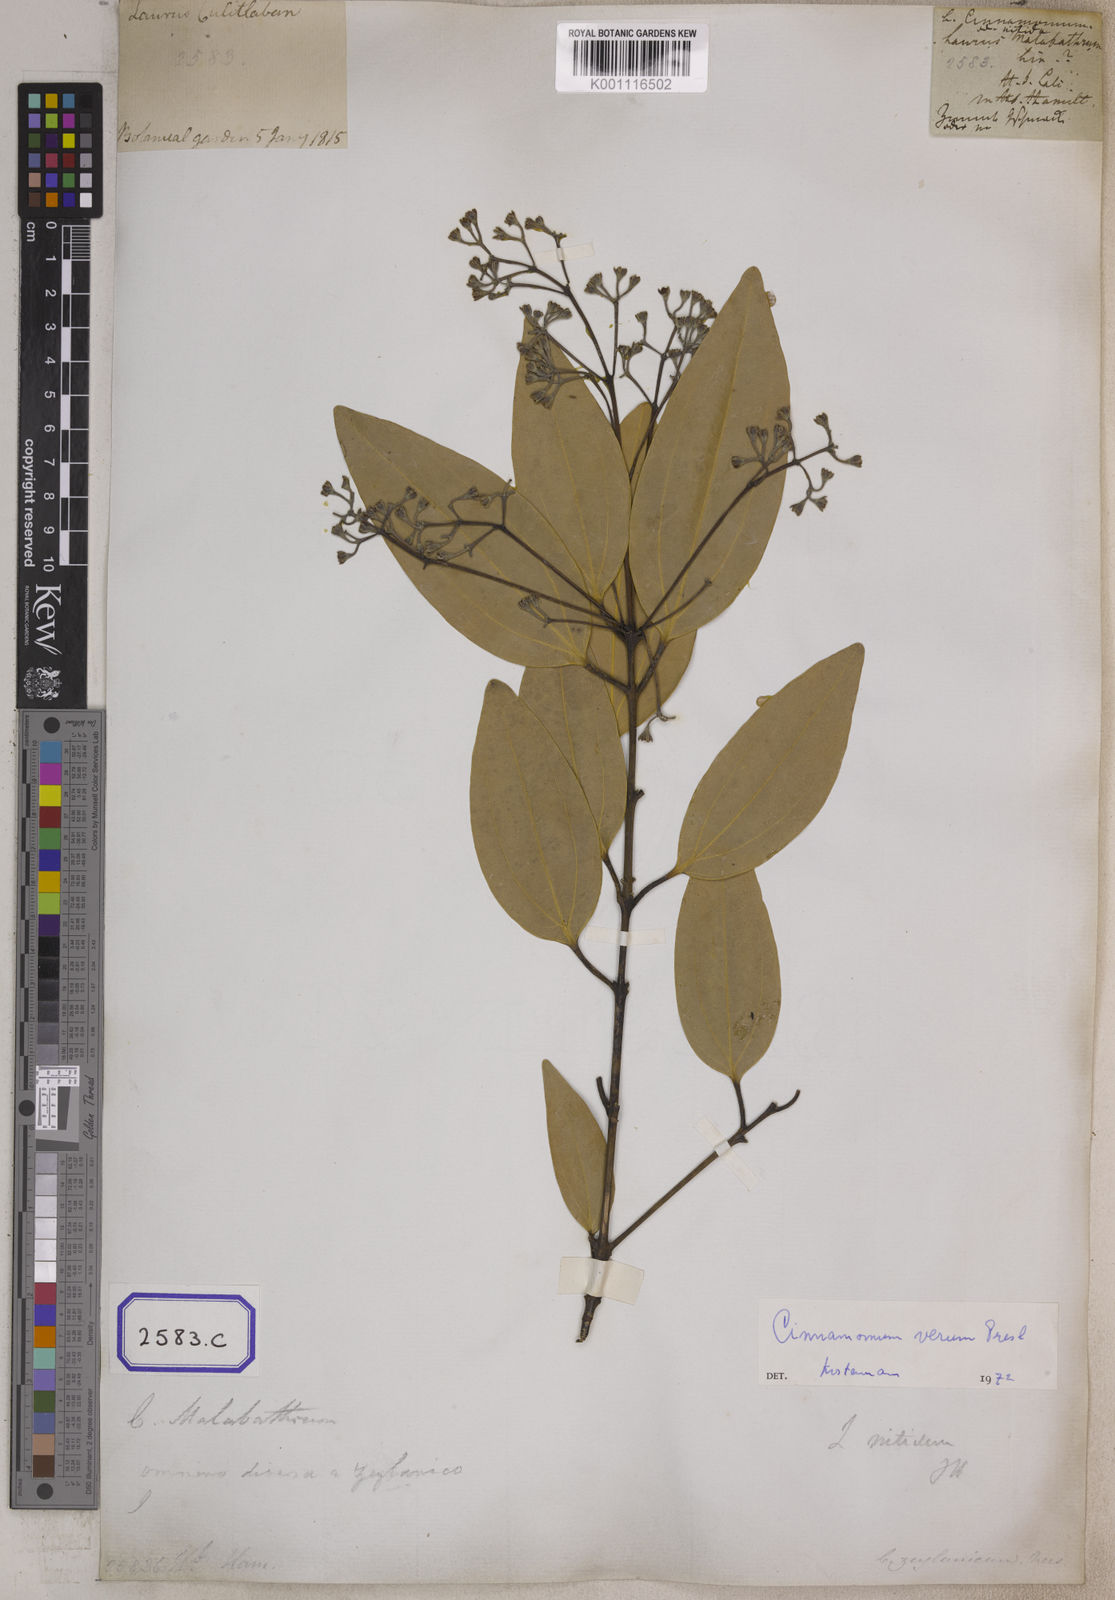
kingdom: Plantae
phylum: Tracheophyta
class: Magnoliopsida
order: Laurales
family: Lauraceae
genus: Cinnamomum
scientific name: Cinnamomum
